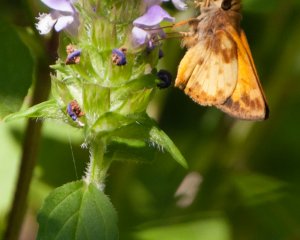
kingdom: Animalia
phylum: Arthropoda
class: Insecta
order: Lepidoptera
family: Hesperiidae
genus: Lon
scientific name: Lon zabulon
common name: Zabulon Skipper
